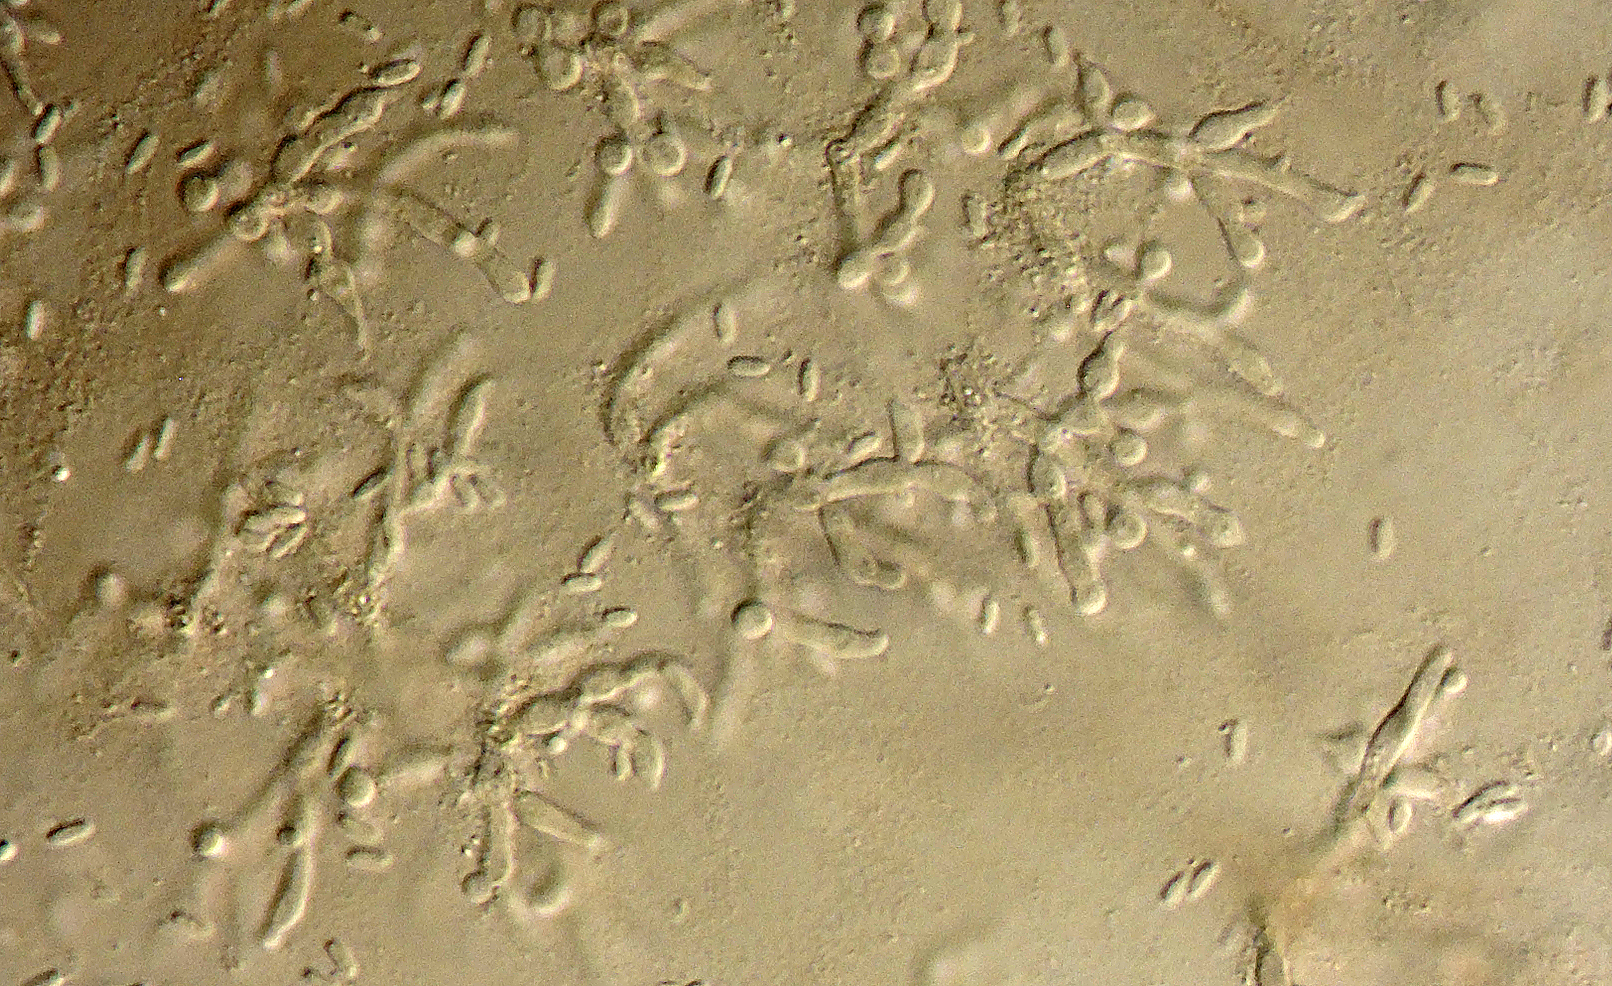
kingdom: Fungi
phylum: Ascomycota
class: Lecanoromycetes
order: Ostropales
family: Stictidaceae
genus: Agyriella
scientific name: Agyriella nitida
